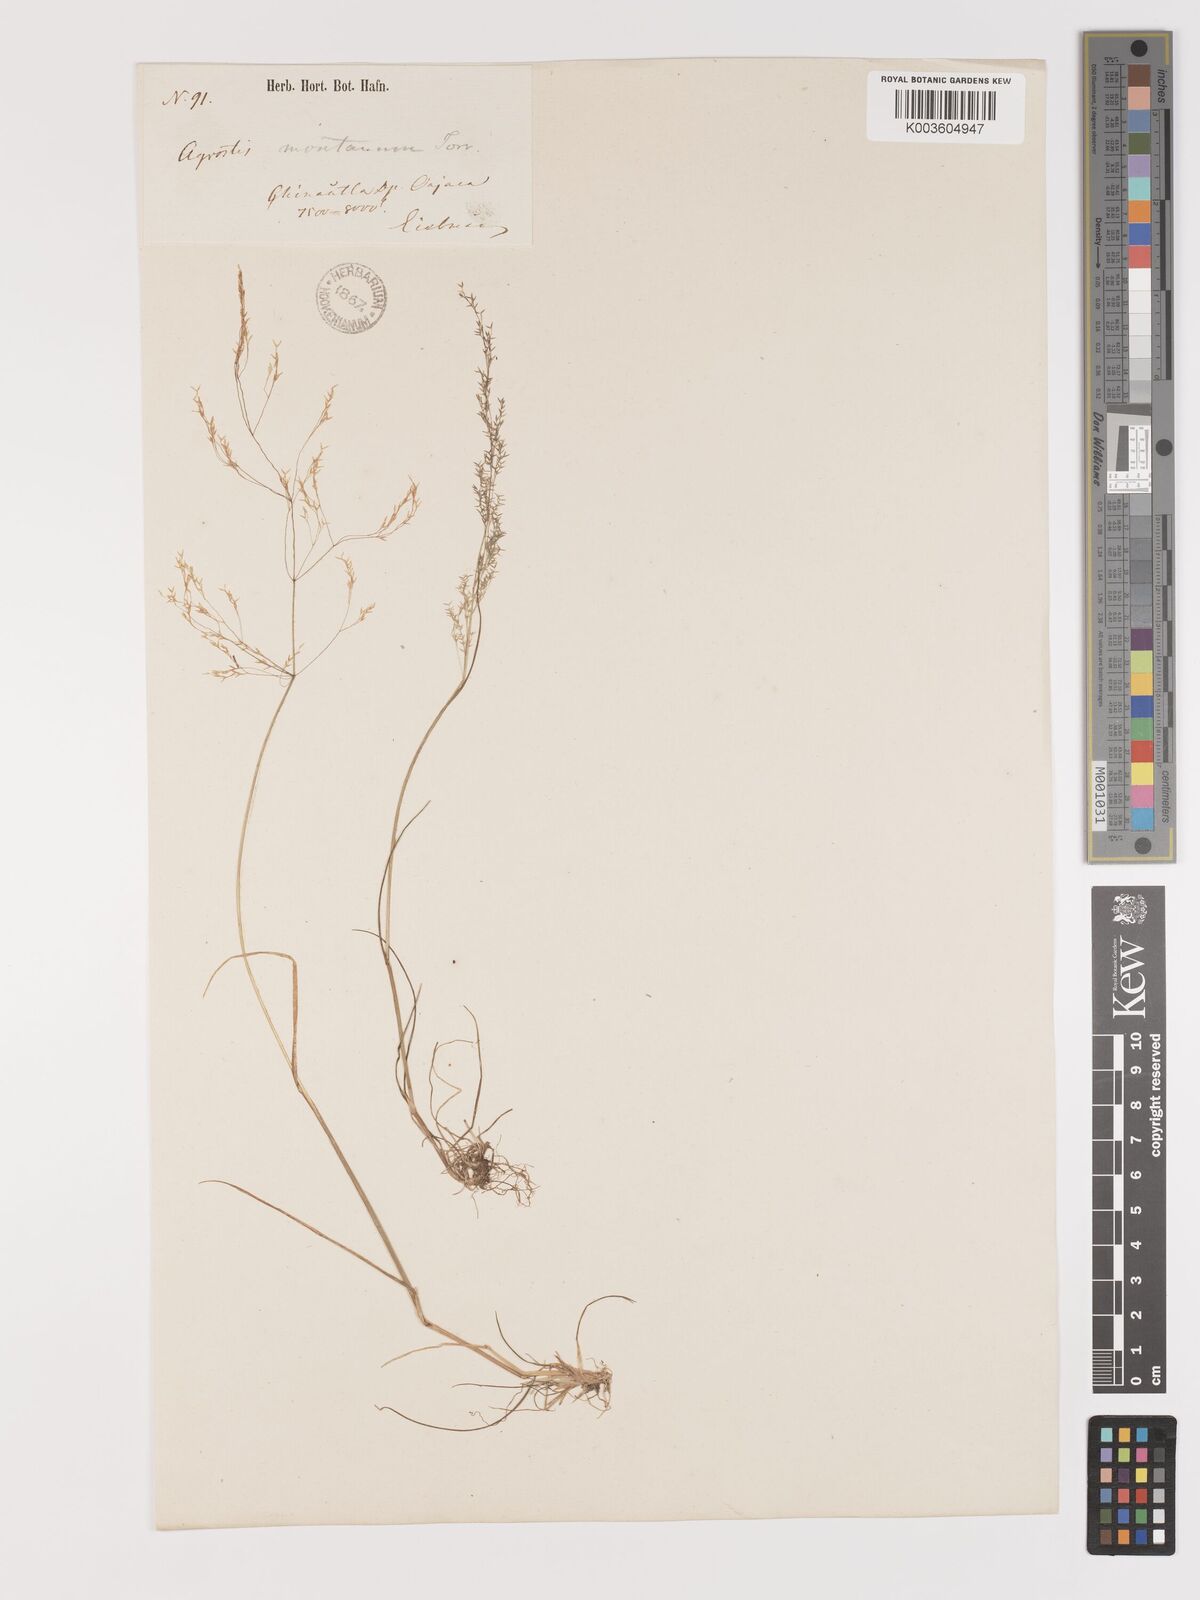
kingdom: Plantae
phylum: Tracheophyta
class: Liliopsida
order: Poales
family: Poaceae
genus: Agrostis
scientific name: Agrostis perennans
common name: Autumn bent
